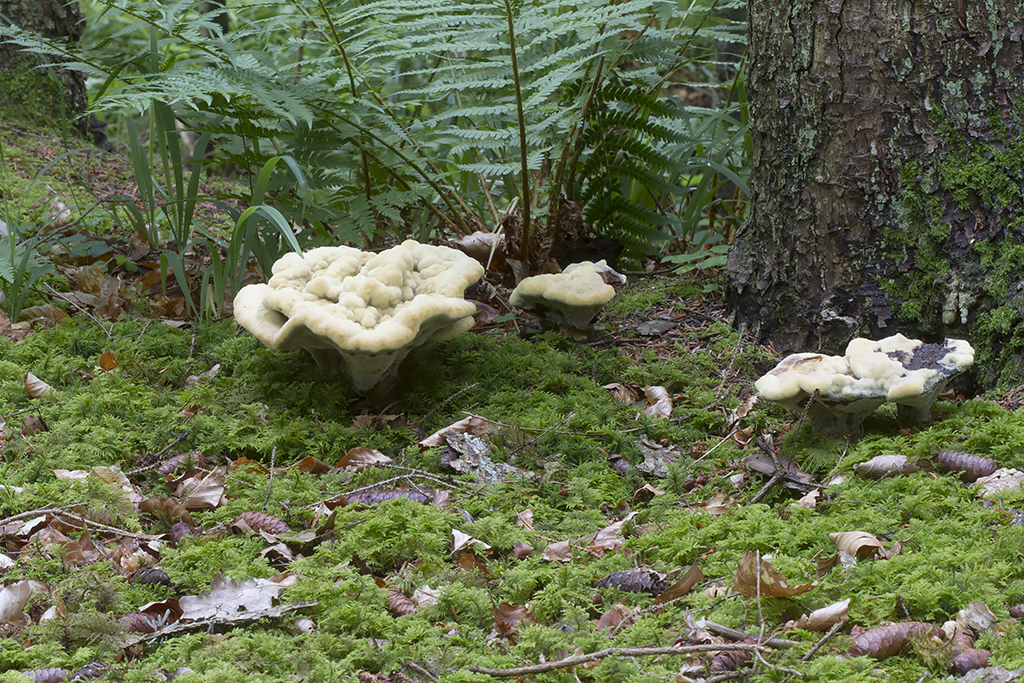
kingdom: Fungi
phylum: Basidiomycota
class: Agaricomycetes
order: Polyporales
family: Laetiporaceae
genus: Phaeolus
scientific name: Phaeolus schweinitzii
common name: brunporesvamp
